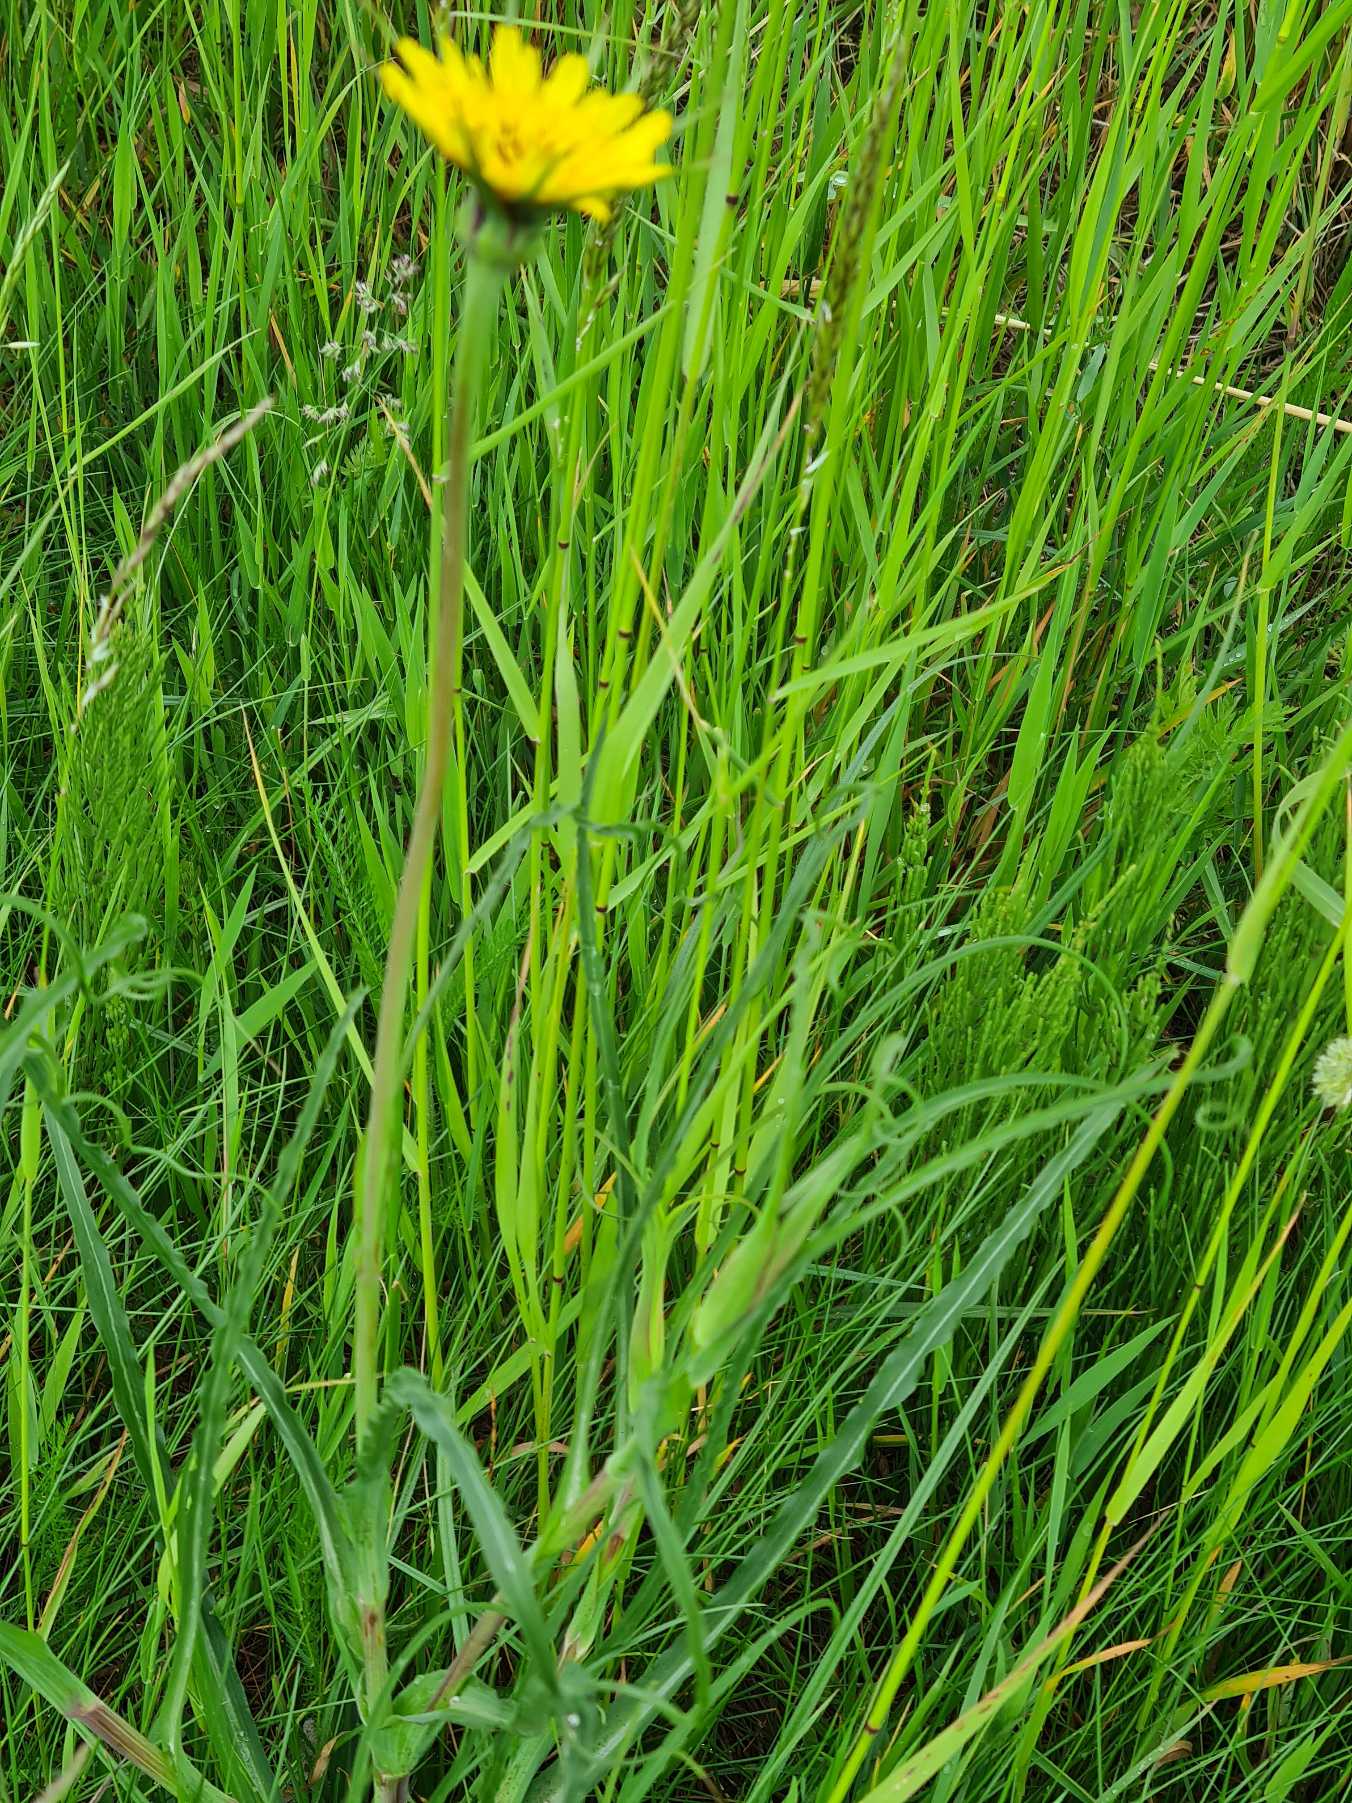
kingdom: Plantae
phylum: Tracheophyta
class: Magnoliopsida
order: Asterales
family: Asteraceae
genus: Tragopogon
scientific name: Tragopogon minor
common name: Småkronet gedeskæg
